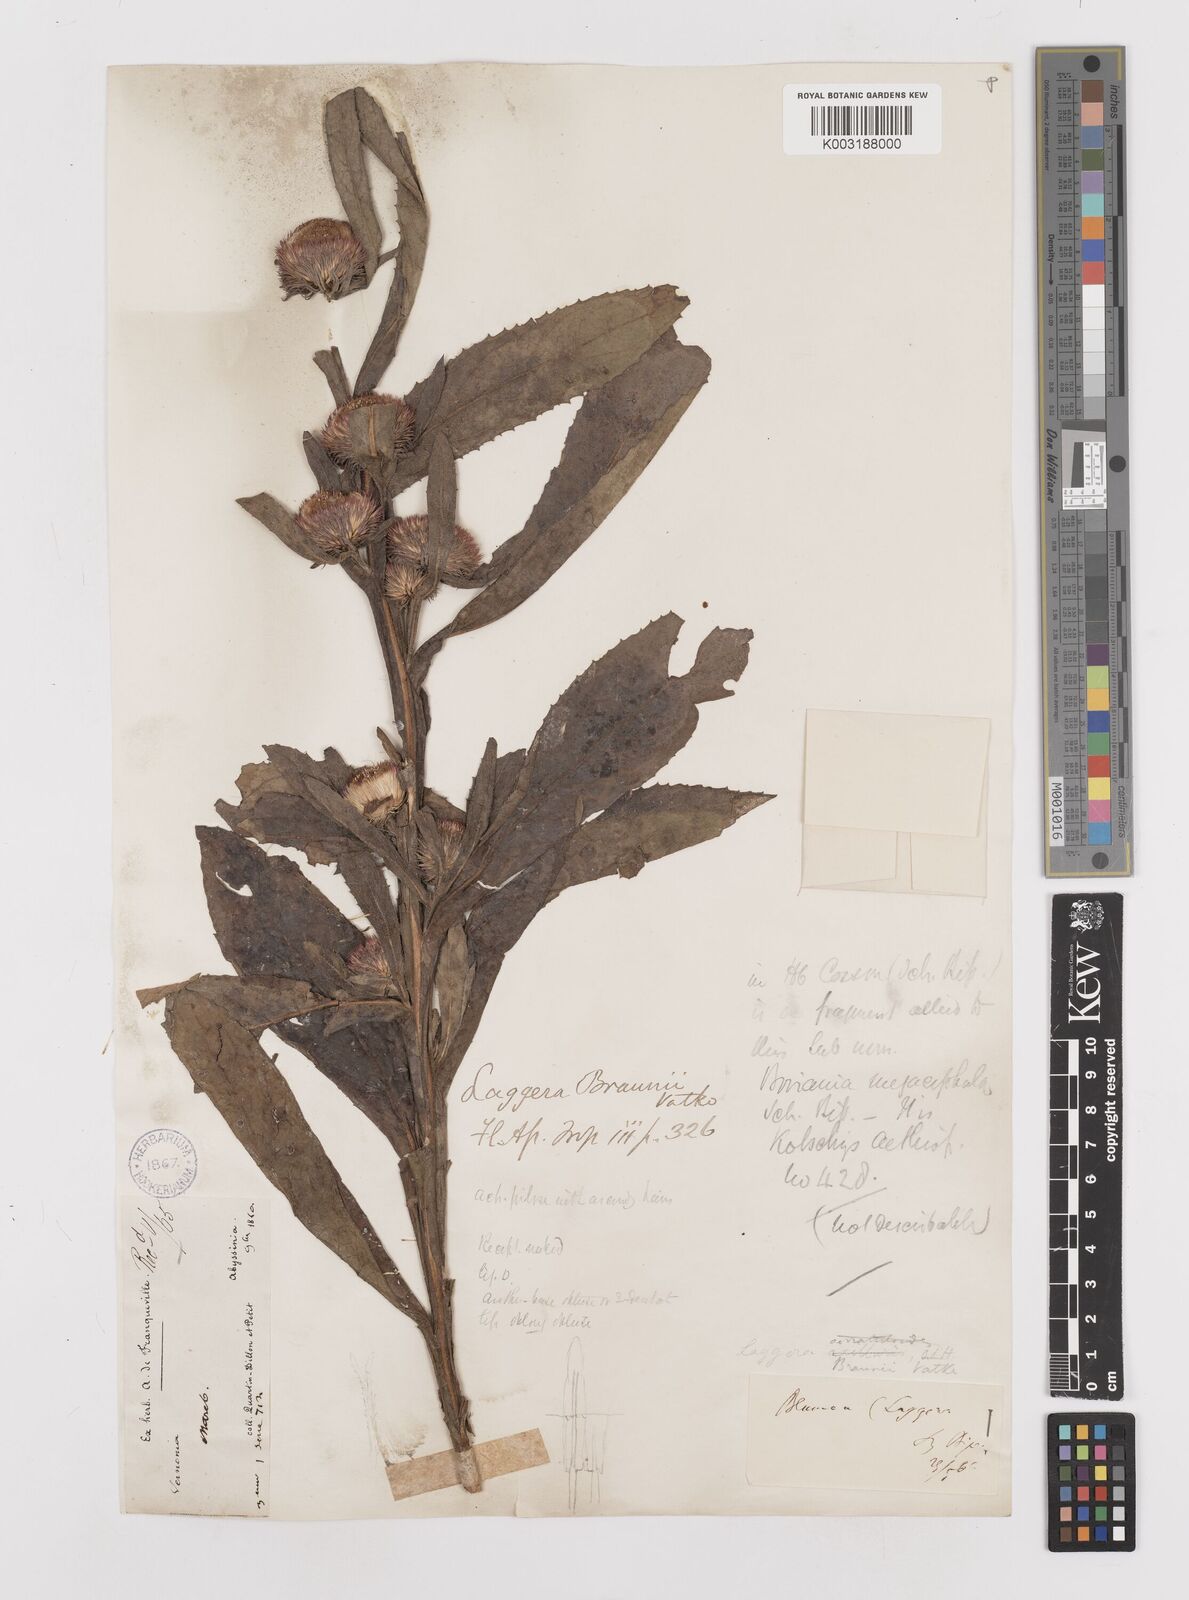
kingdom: Plantae
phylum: Tracheophyta
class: Magnoliopsida
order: Asterales
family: Asteraceae
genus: Laggera
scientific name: Laggera braunii
